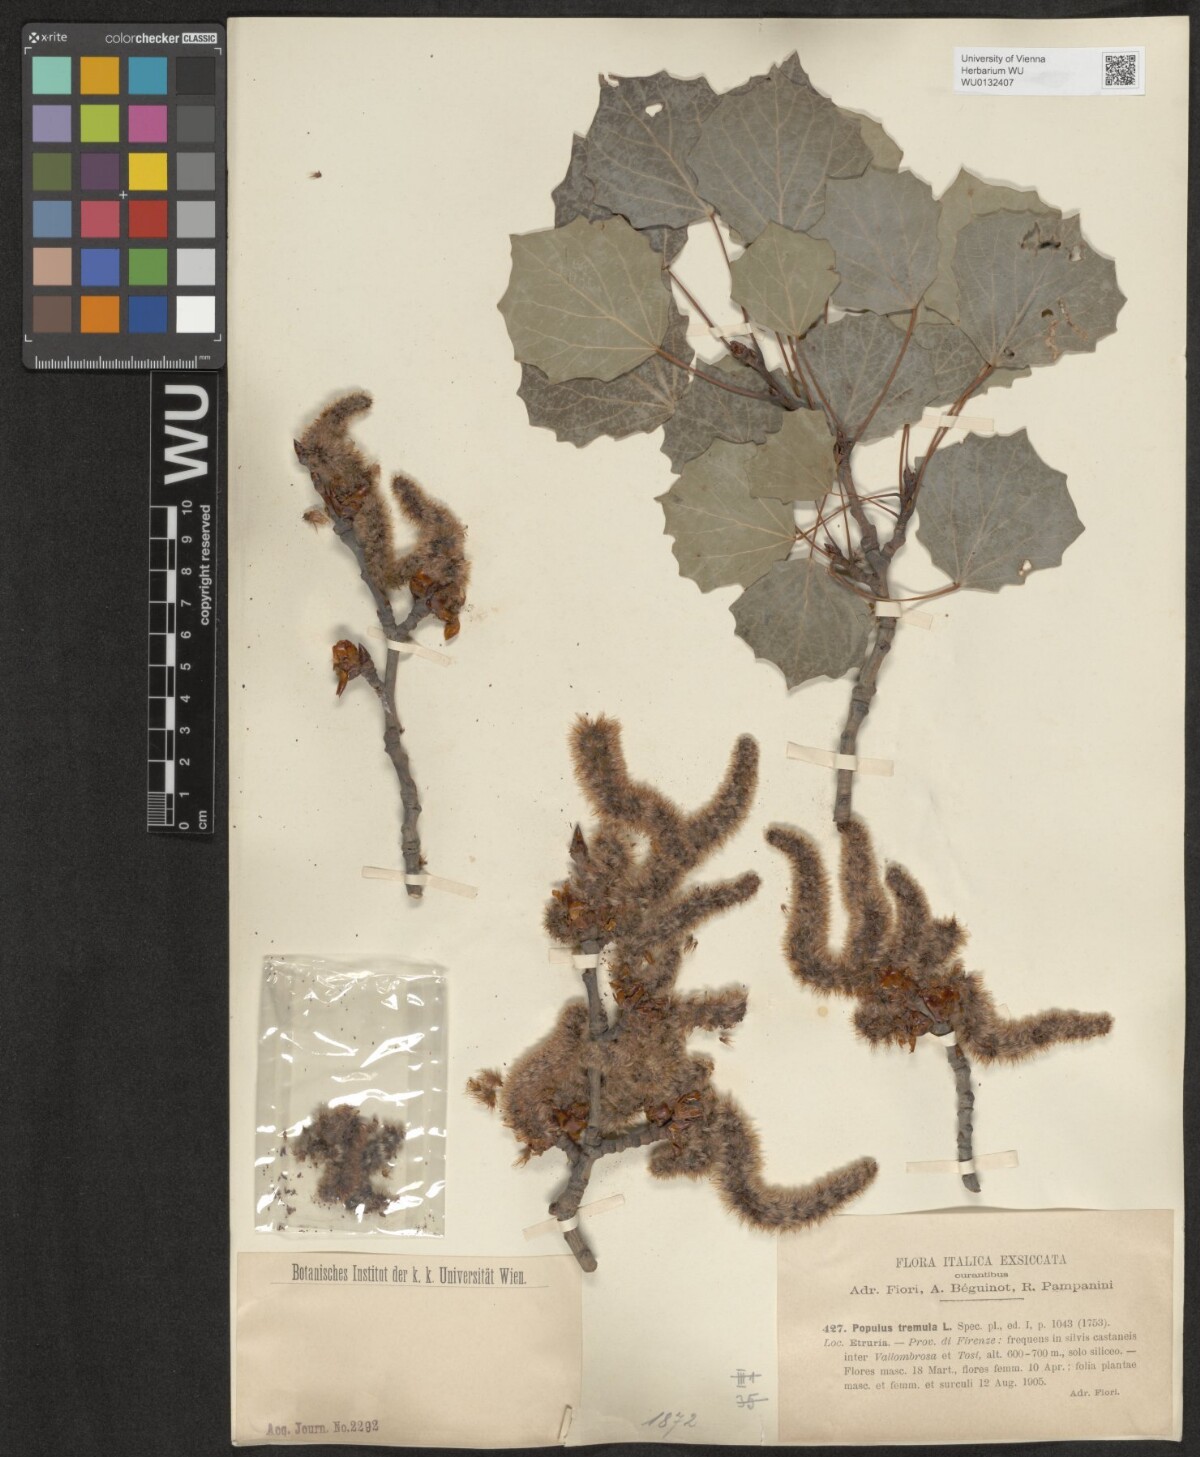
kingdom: Plantae
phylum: Tracheophyta
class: Magnoliopsida
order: Malpighiales
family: Salicaceae
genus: Populus
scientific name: Populus tremula
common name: European aspen
